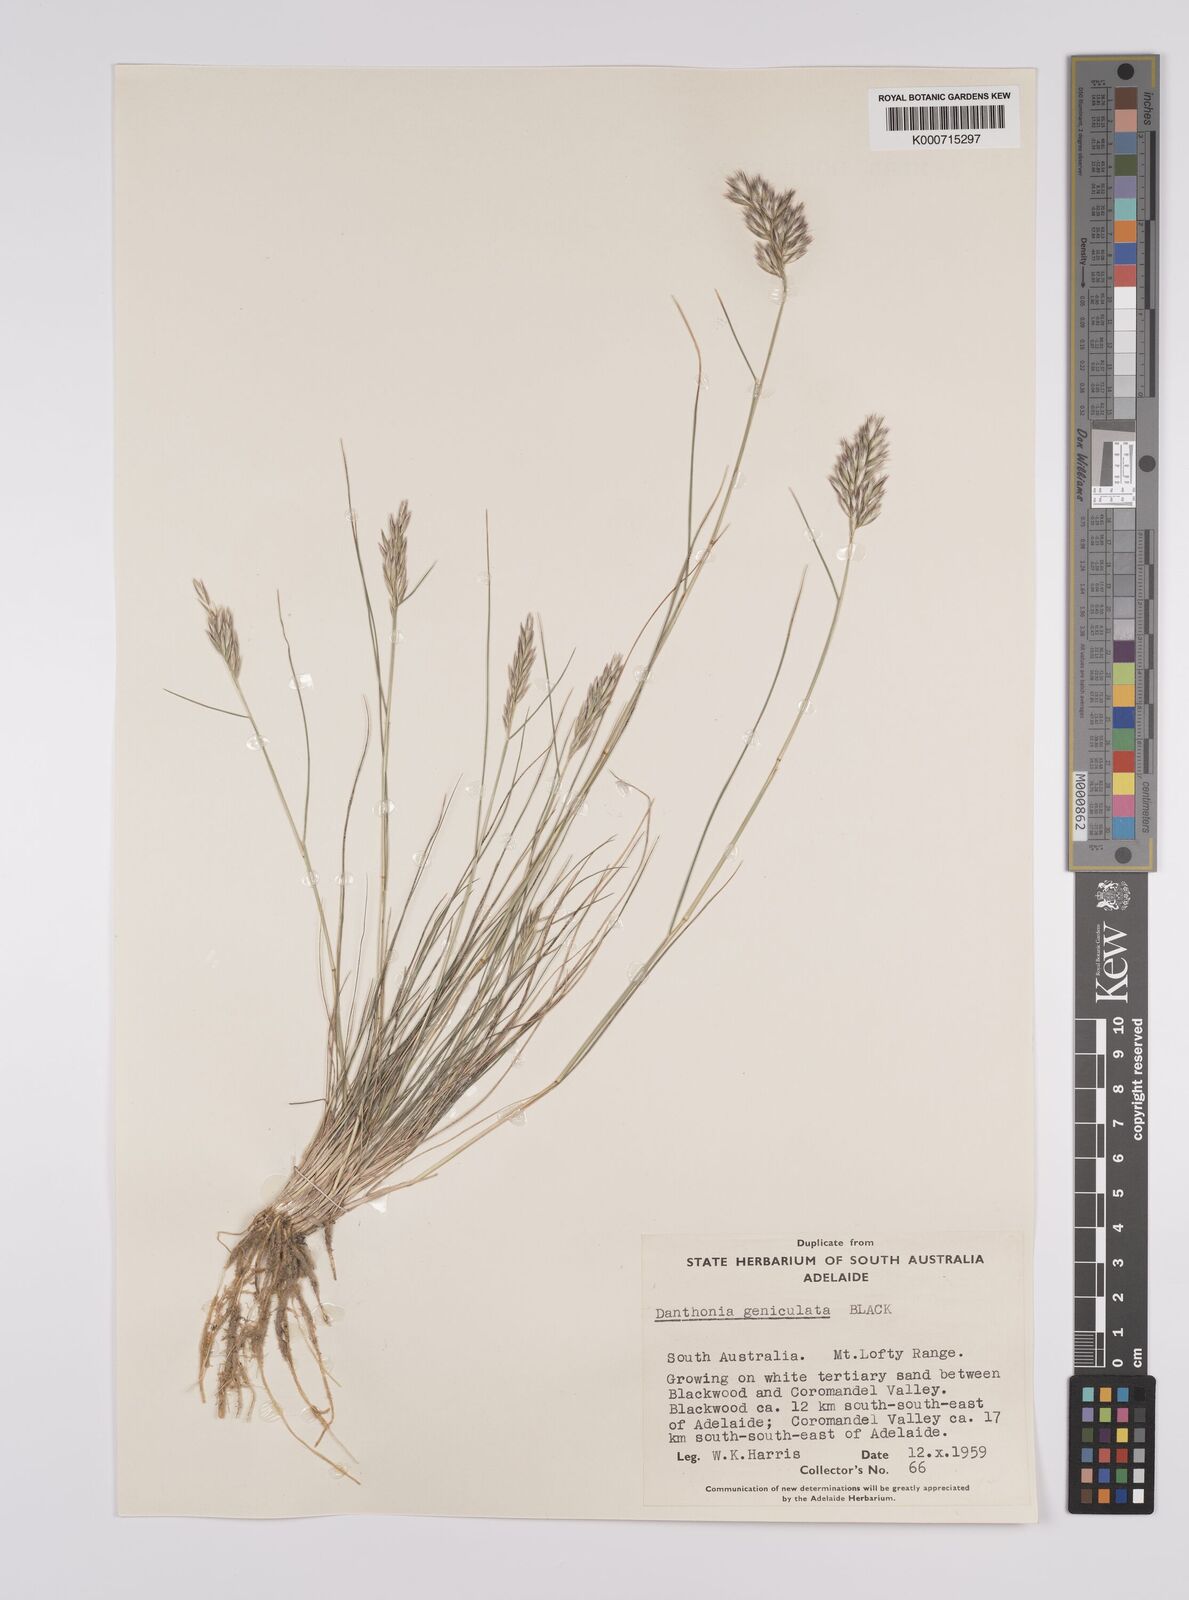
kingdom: Plantae
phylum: Tracheophyta
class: Liliopsida
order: Poales
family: Poaceae
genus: Rytidosperma
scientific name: Rytidosperma geniculatum
